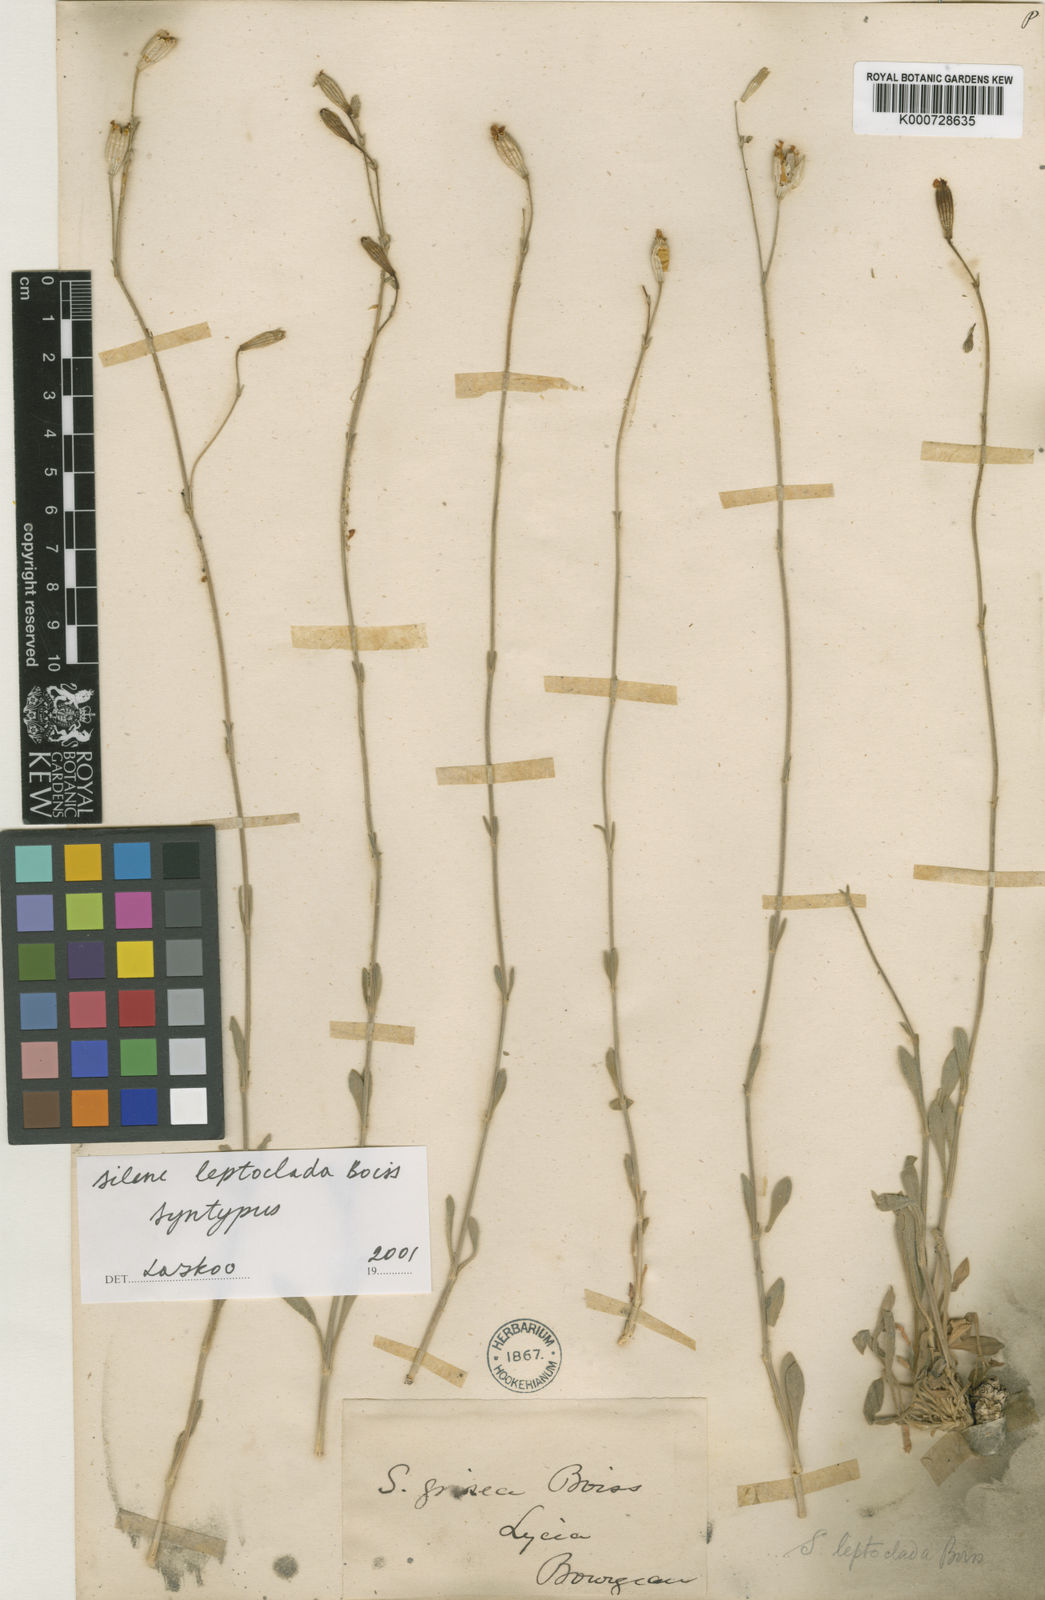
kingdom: Plantae
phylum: Tracheophyta
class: Magnoliopsida
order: Caryophyllales
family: Caryophyllaceae
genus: Silene
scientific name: Silene leptoclada
